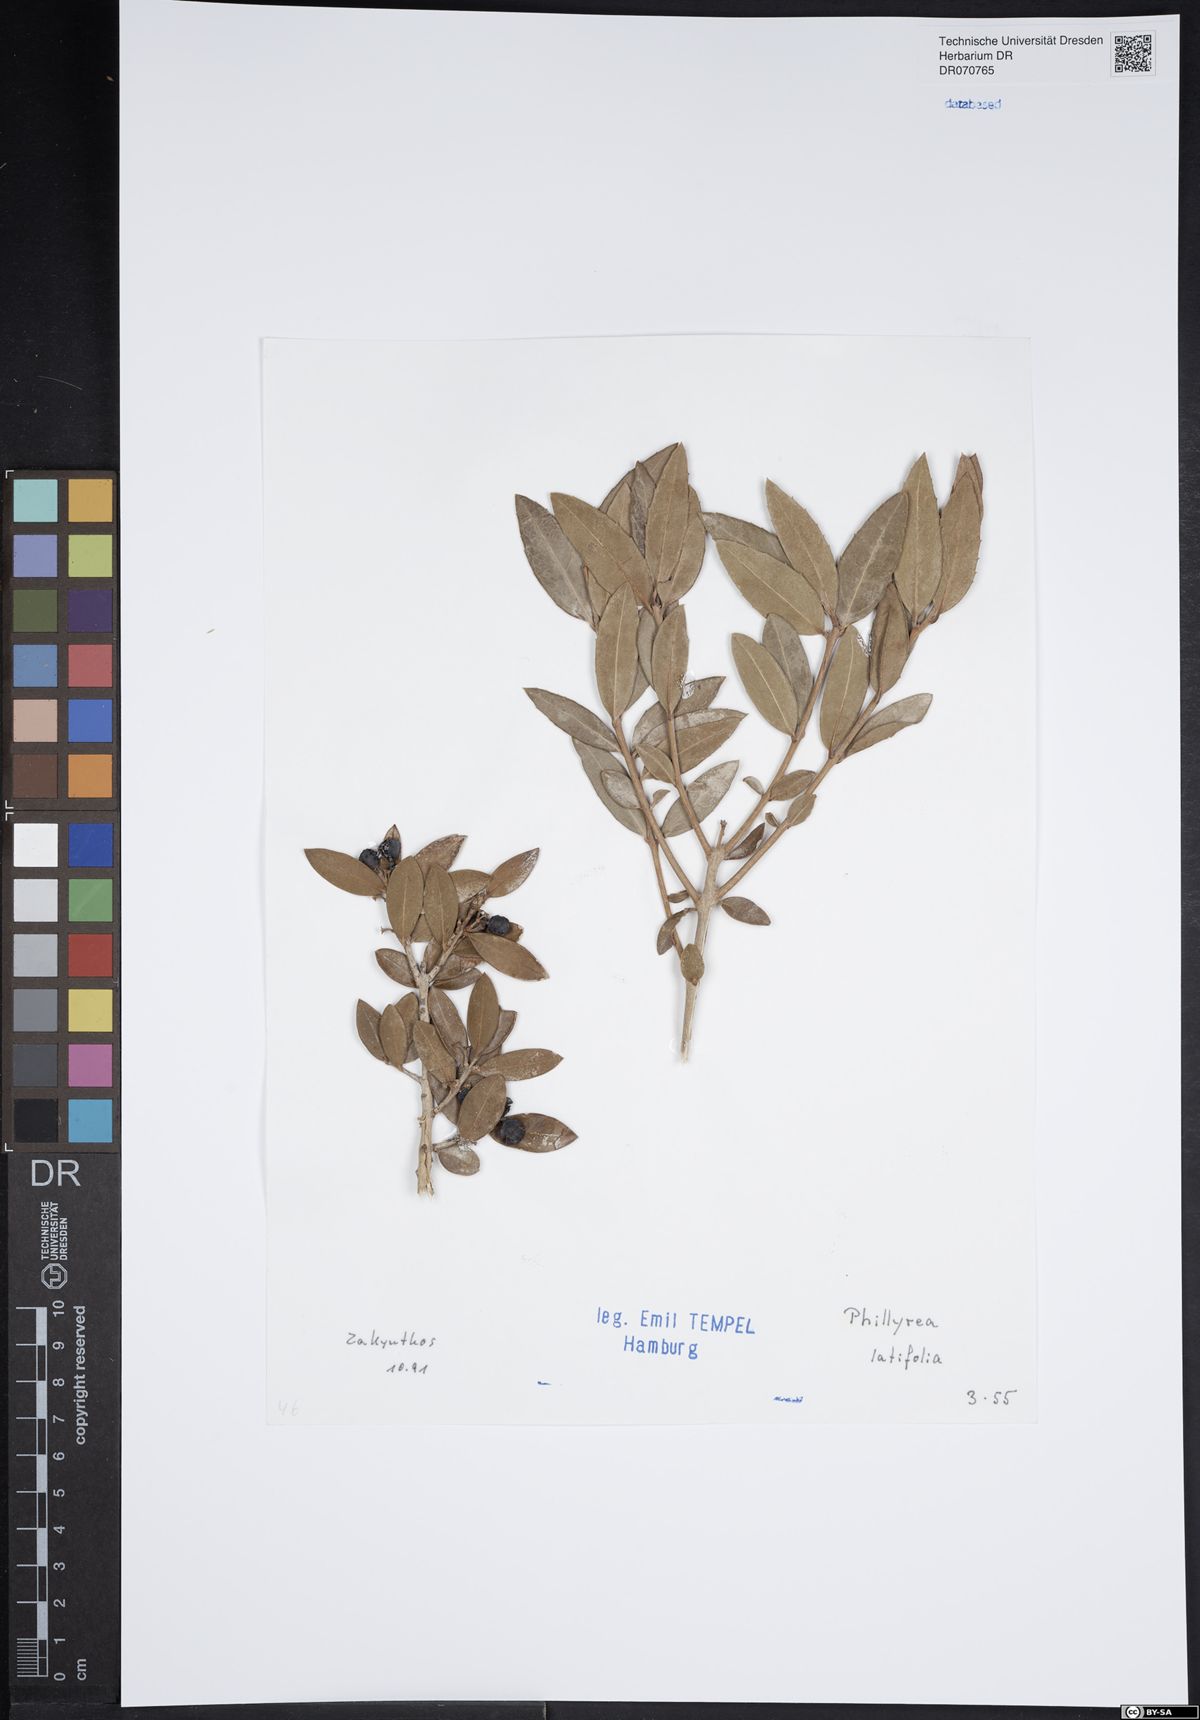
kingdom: Plantae
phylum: Tracheophyta
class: Magnoliopsida
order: Lamiales
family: Oleaceae
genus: Phillyrea
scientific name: Phillyrea latifolia
